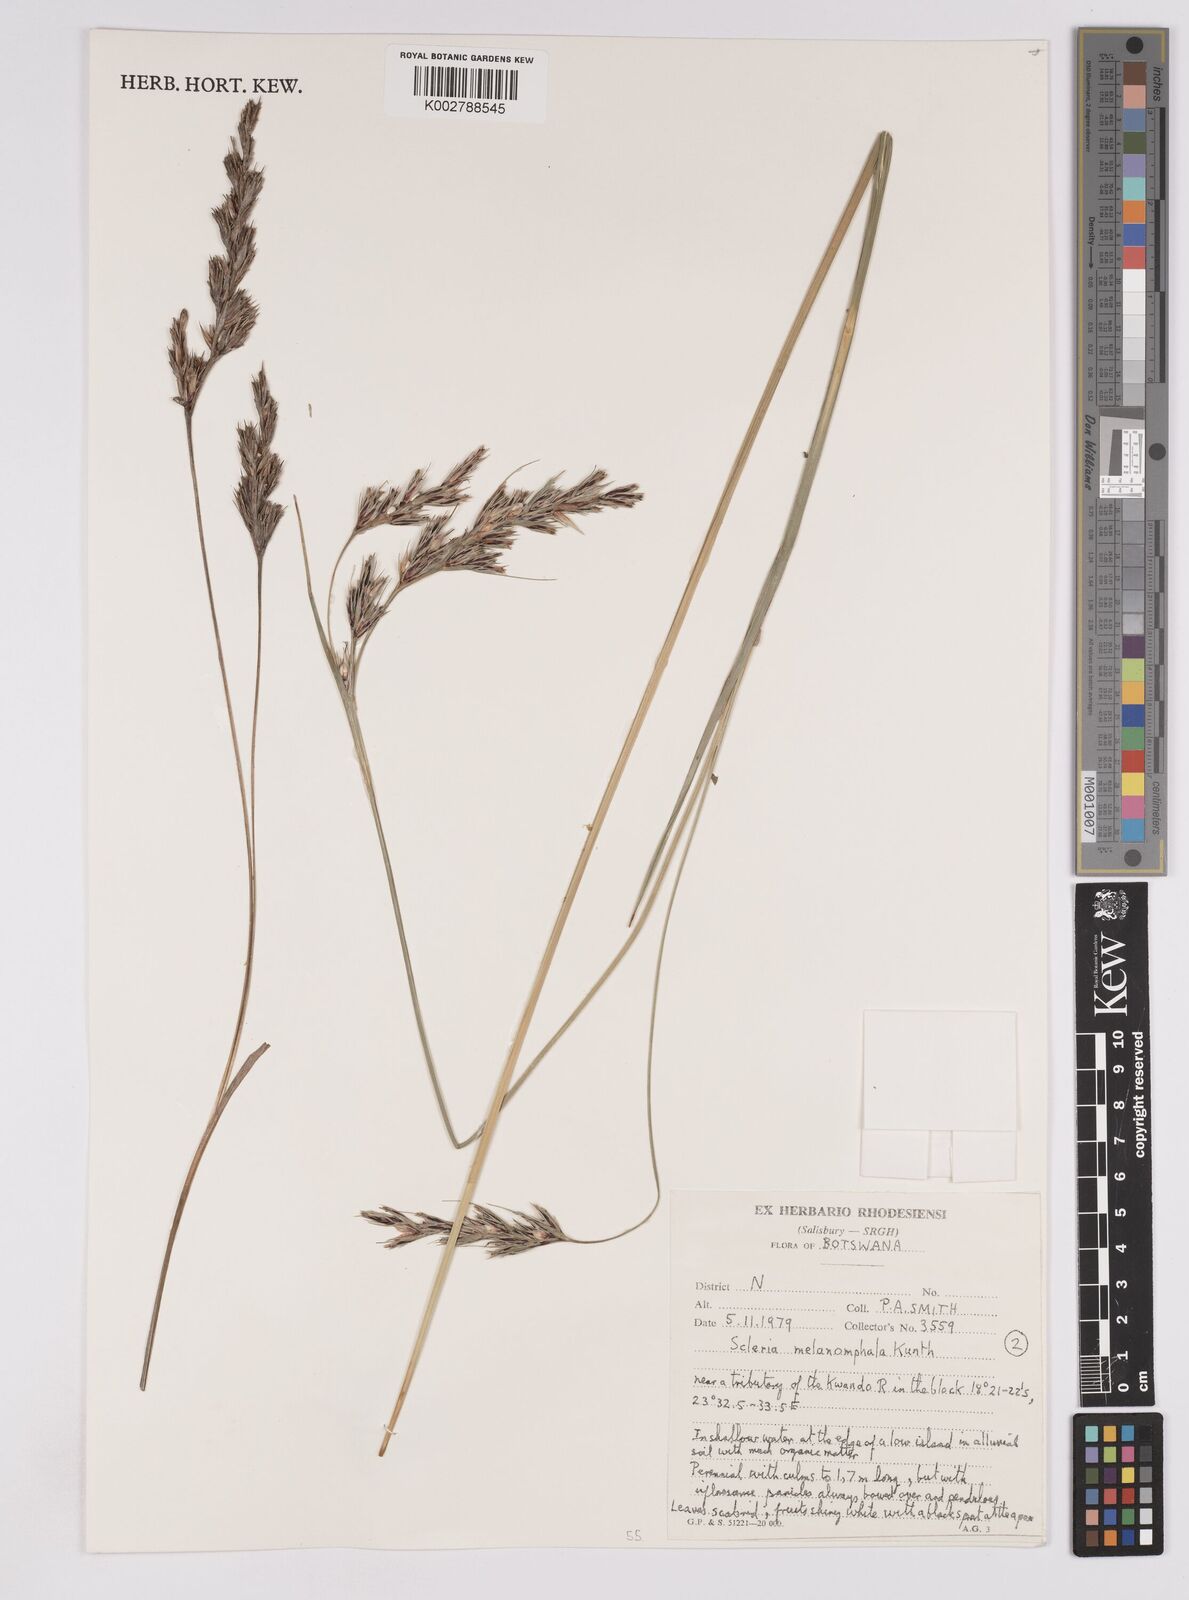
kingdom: Plantae
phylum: Tracheophyta
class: Liliopsida
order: Poales
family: Cyperaceae
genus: Scleria
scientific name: Scleria melanomphala
